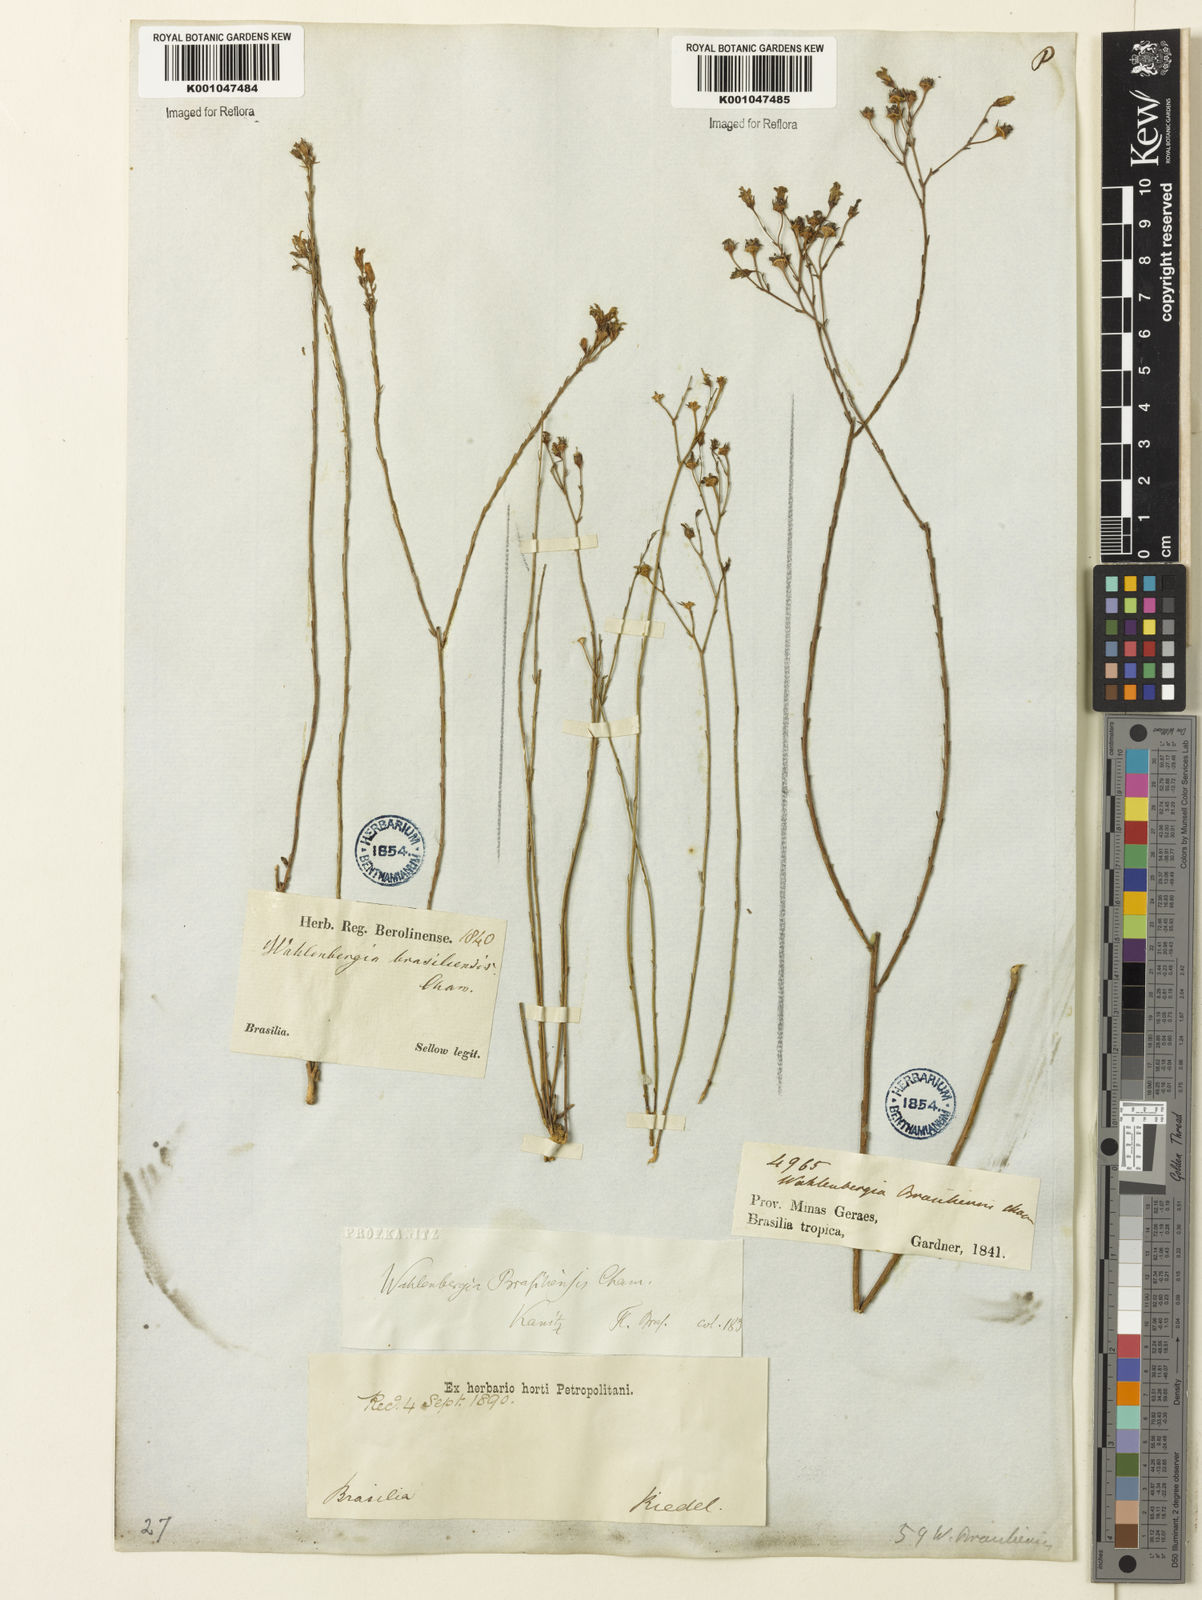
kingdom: Plantae
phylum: Tracheophyta
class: Magnoliopsida
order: Asterales
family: Campanulaceae
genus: Wahlenbergia
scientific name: Wahlenbergia brasiliensis
